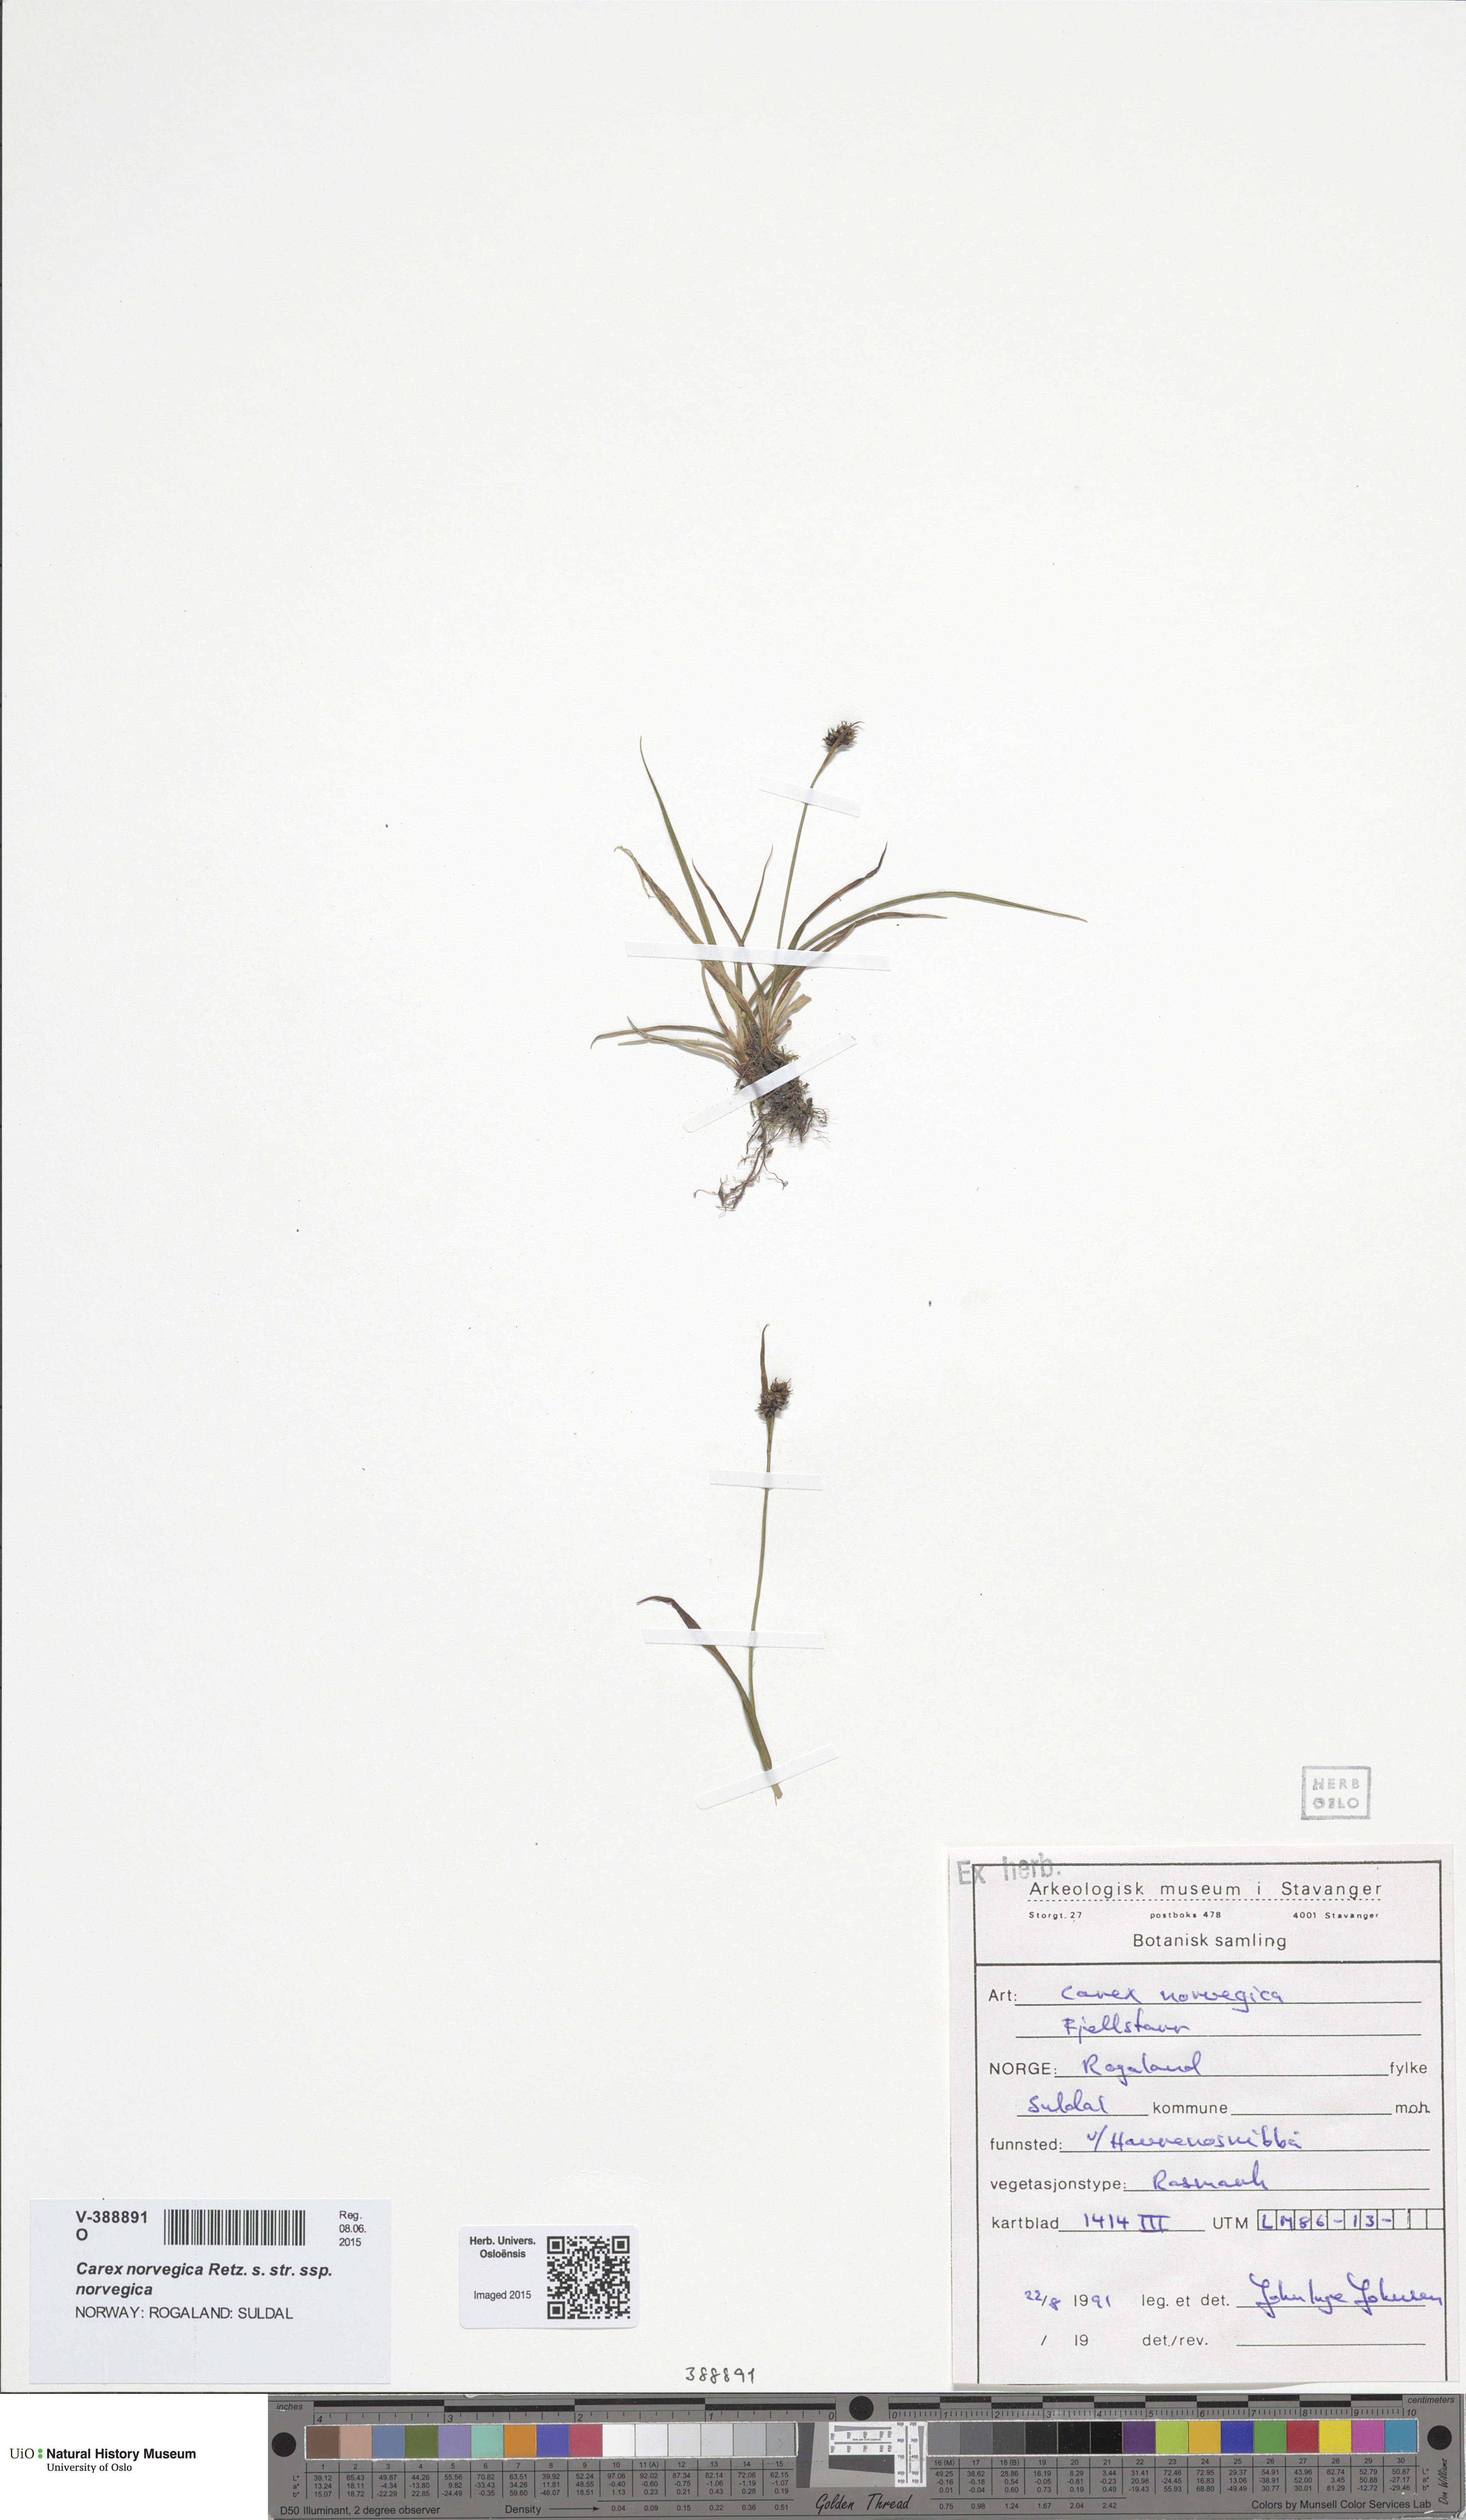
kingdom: Plantae
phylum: Tracheophyta
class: Liliopsida
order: Poales
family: Cyperaceae
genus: Carex
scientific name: Carex norvegica
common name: Close-headed alpine-sedge
